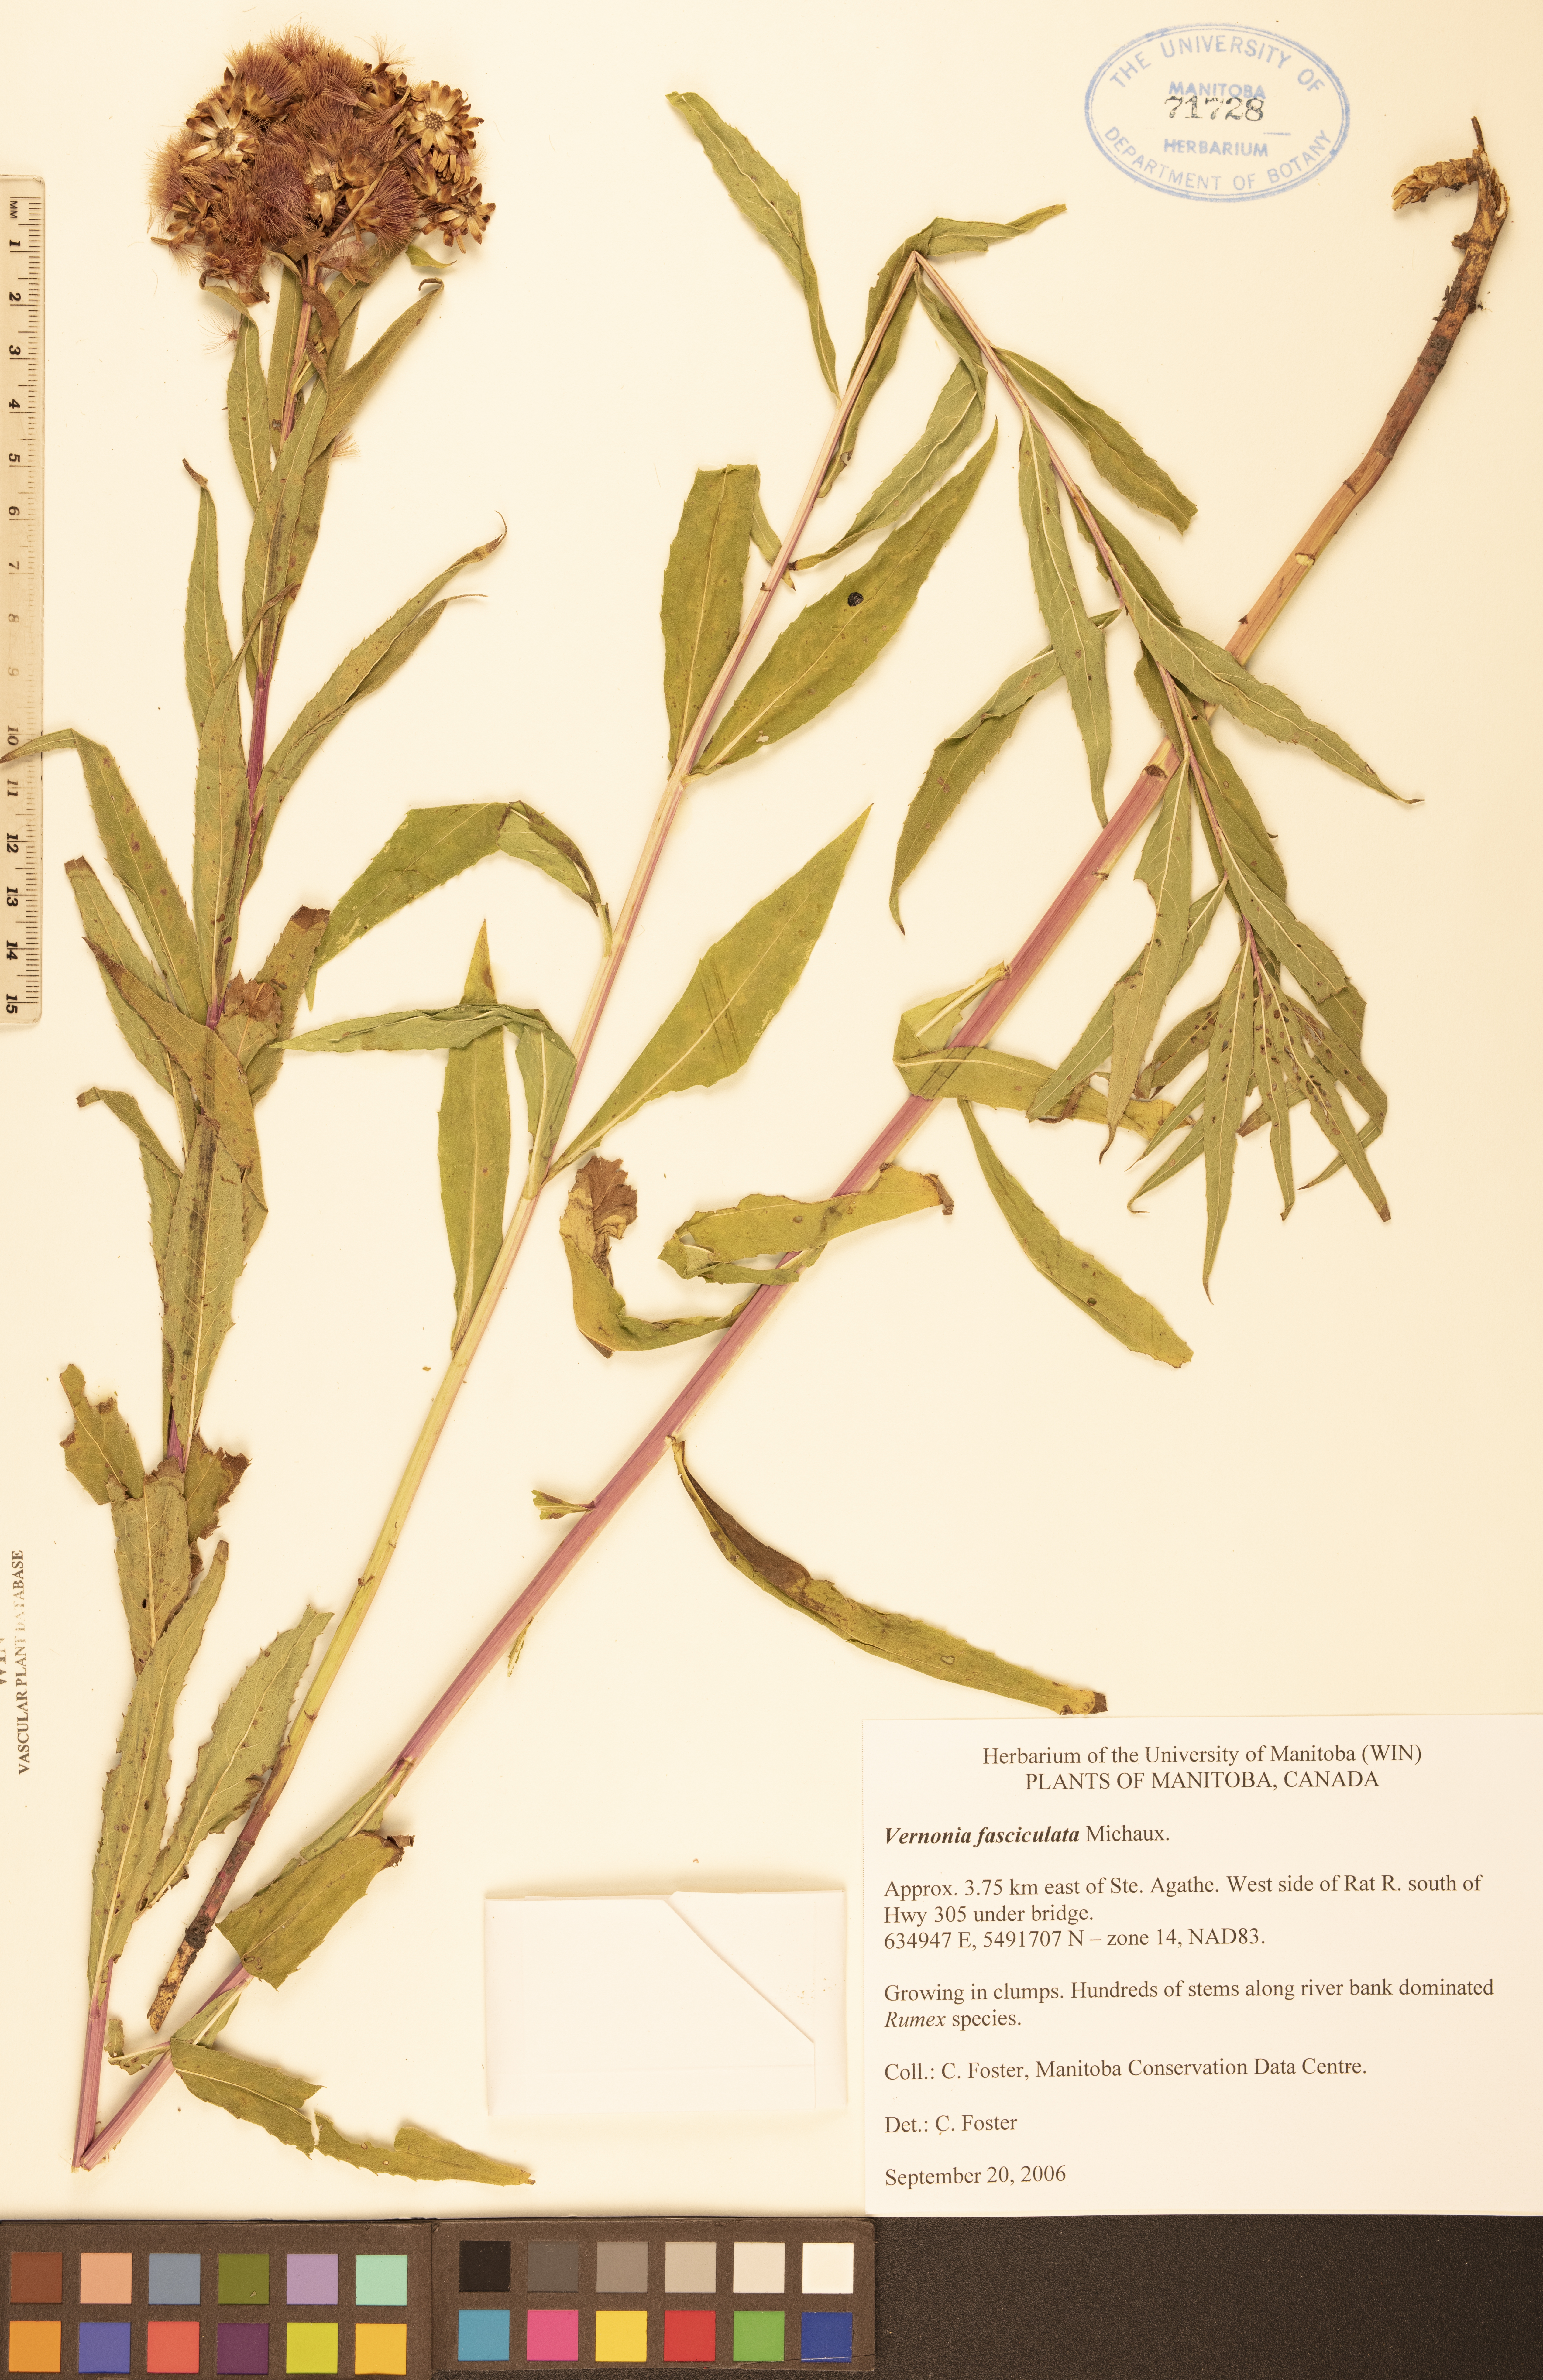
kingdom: Plantae
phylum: Tracheophyta
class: Magnoliopsida
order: Asterales
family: Asteraceae
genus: Vernonia
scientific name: Vernonia fasciculata
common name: Fascicled ironweed
